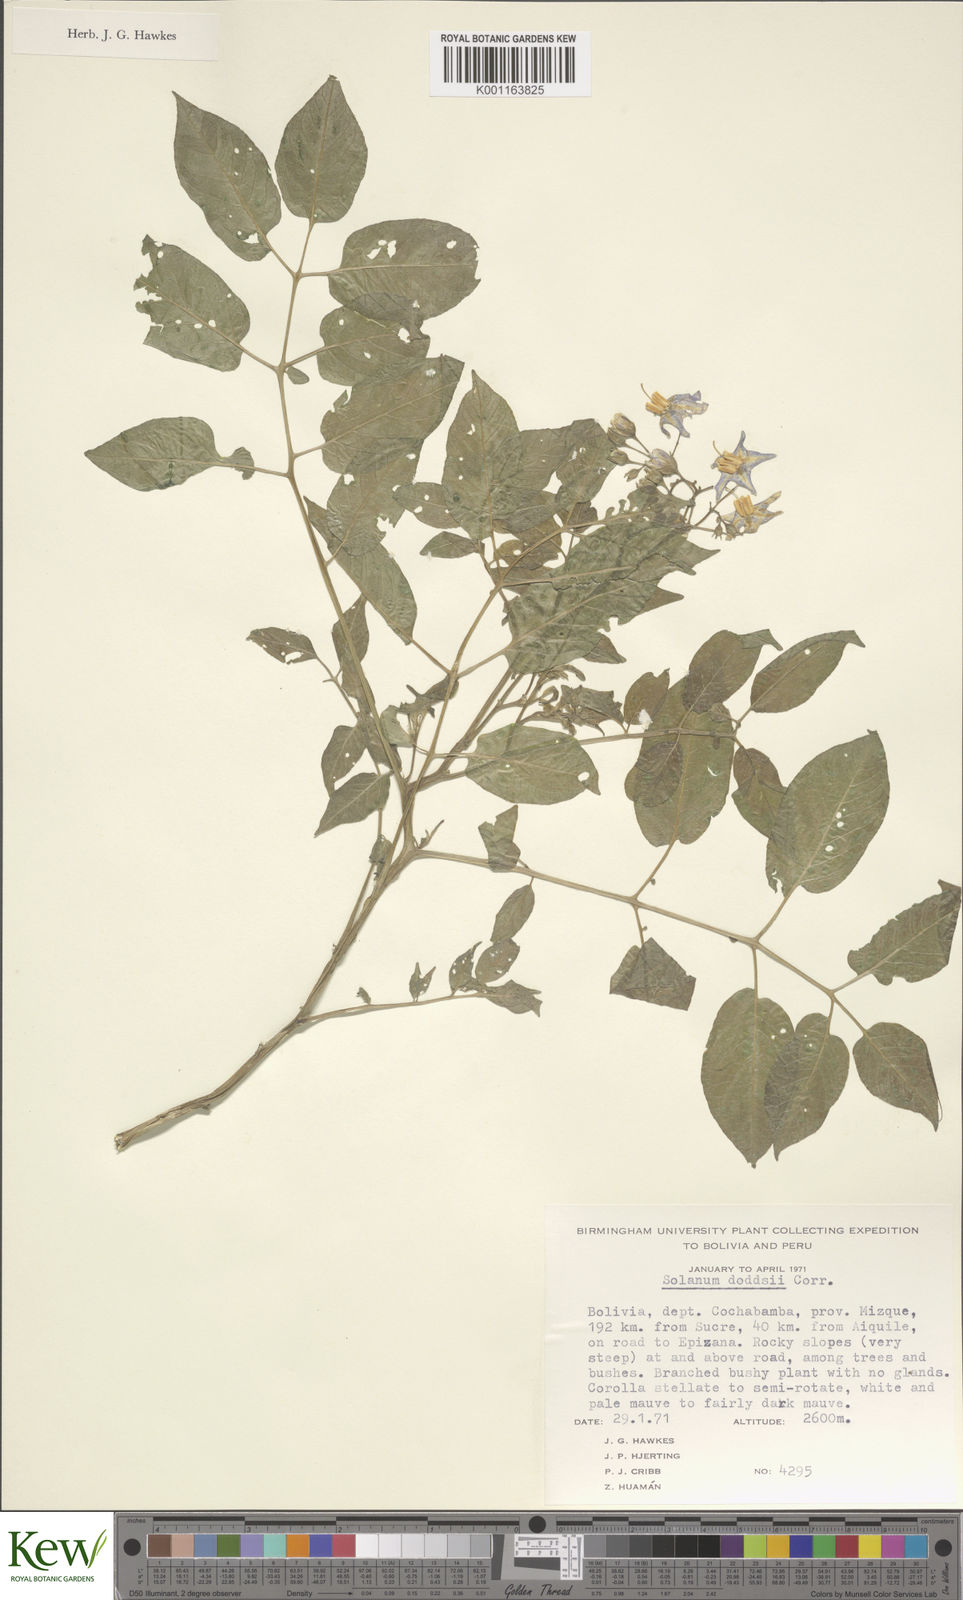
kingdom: Plantae
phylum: Tracheophyta
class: Magnoliopsida
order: Solanales
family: Solanaceae
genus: Solanum
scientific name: Solanum doddsii
